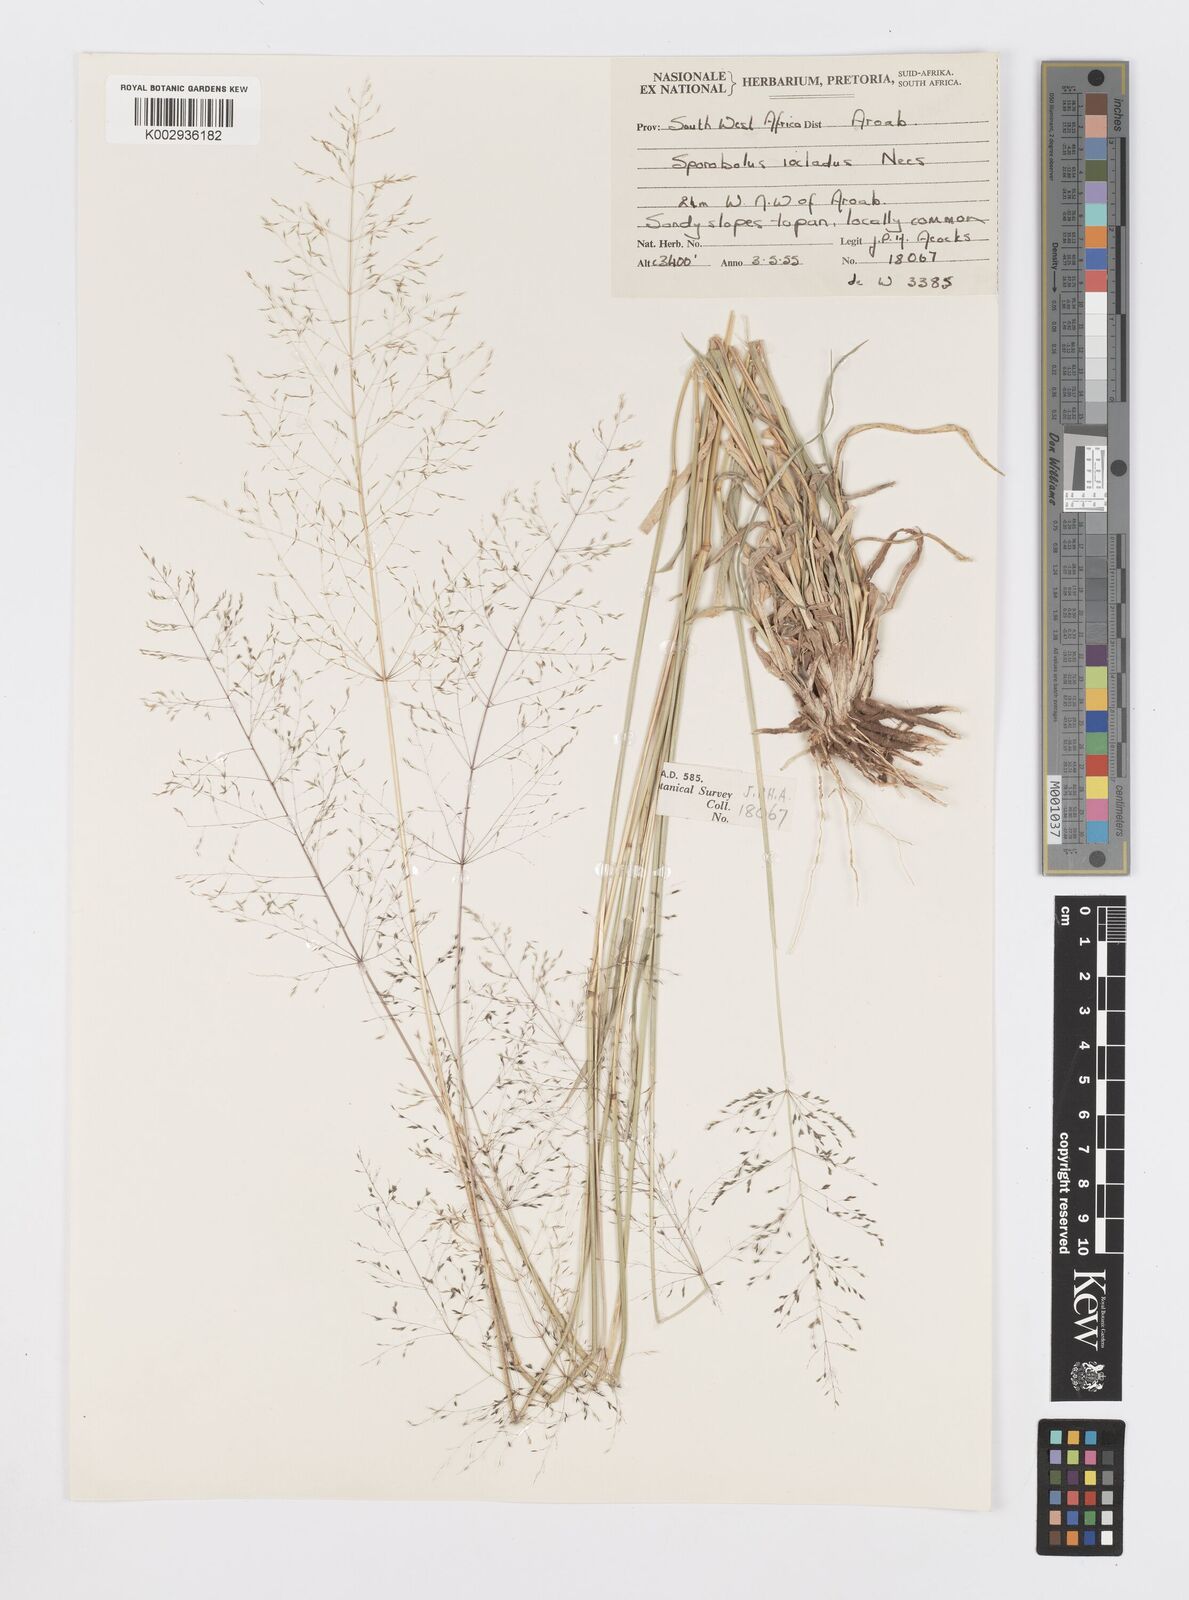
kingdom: Plantae
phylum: Tracheophyta
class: Liliopsida
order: Poales
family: Poaceae
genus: Sporobolus
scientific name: Sporobolus ioclados
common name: Pan dropseed
